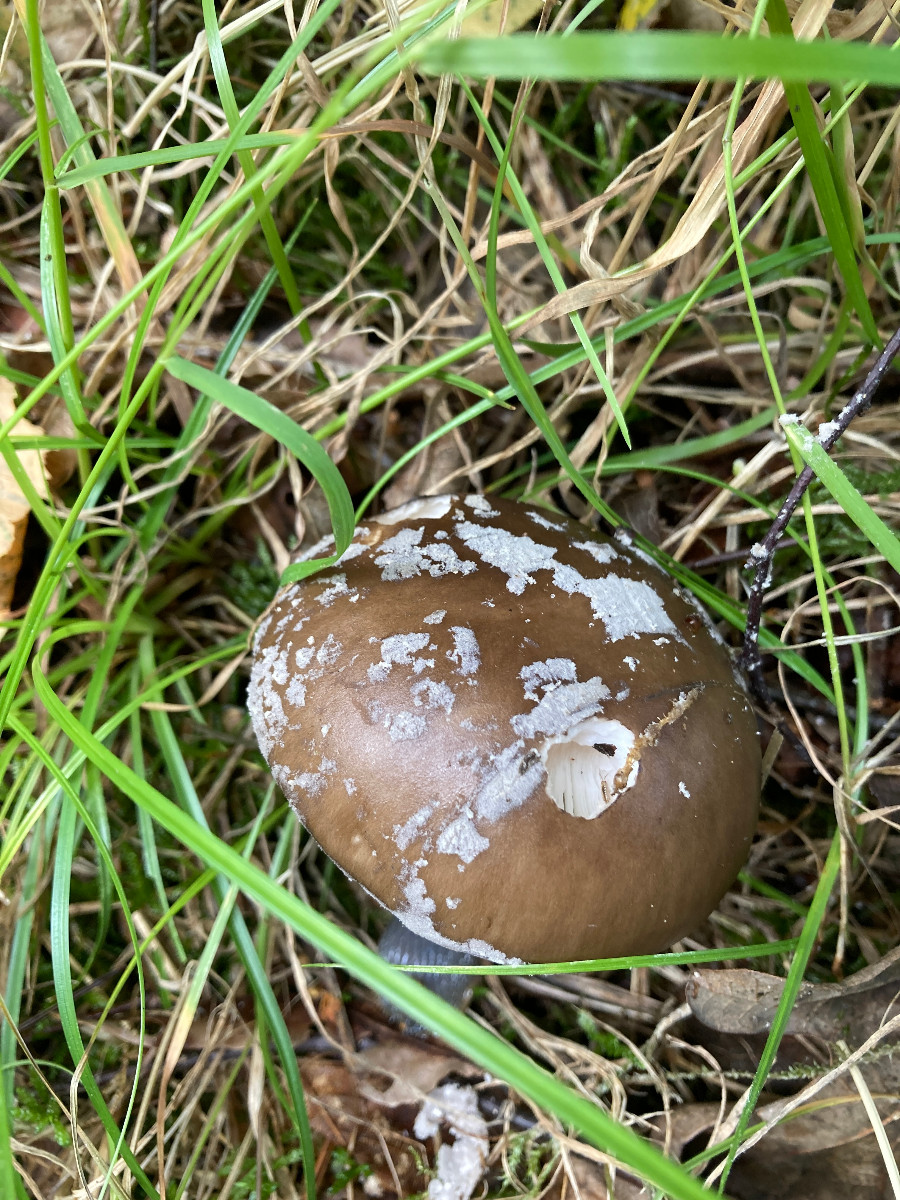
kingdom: Fungi
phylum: Basidiomycota
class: Agaricomycetes
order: Agaricales
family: Amanitaceae
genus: Amanita
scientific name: Amanita
